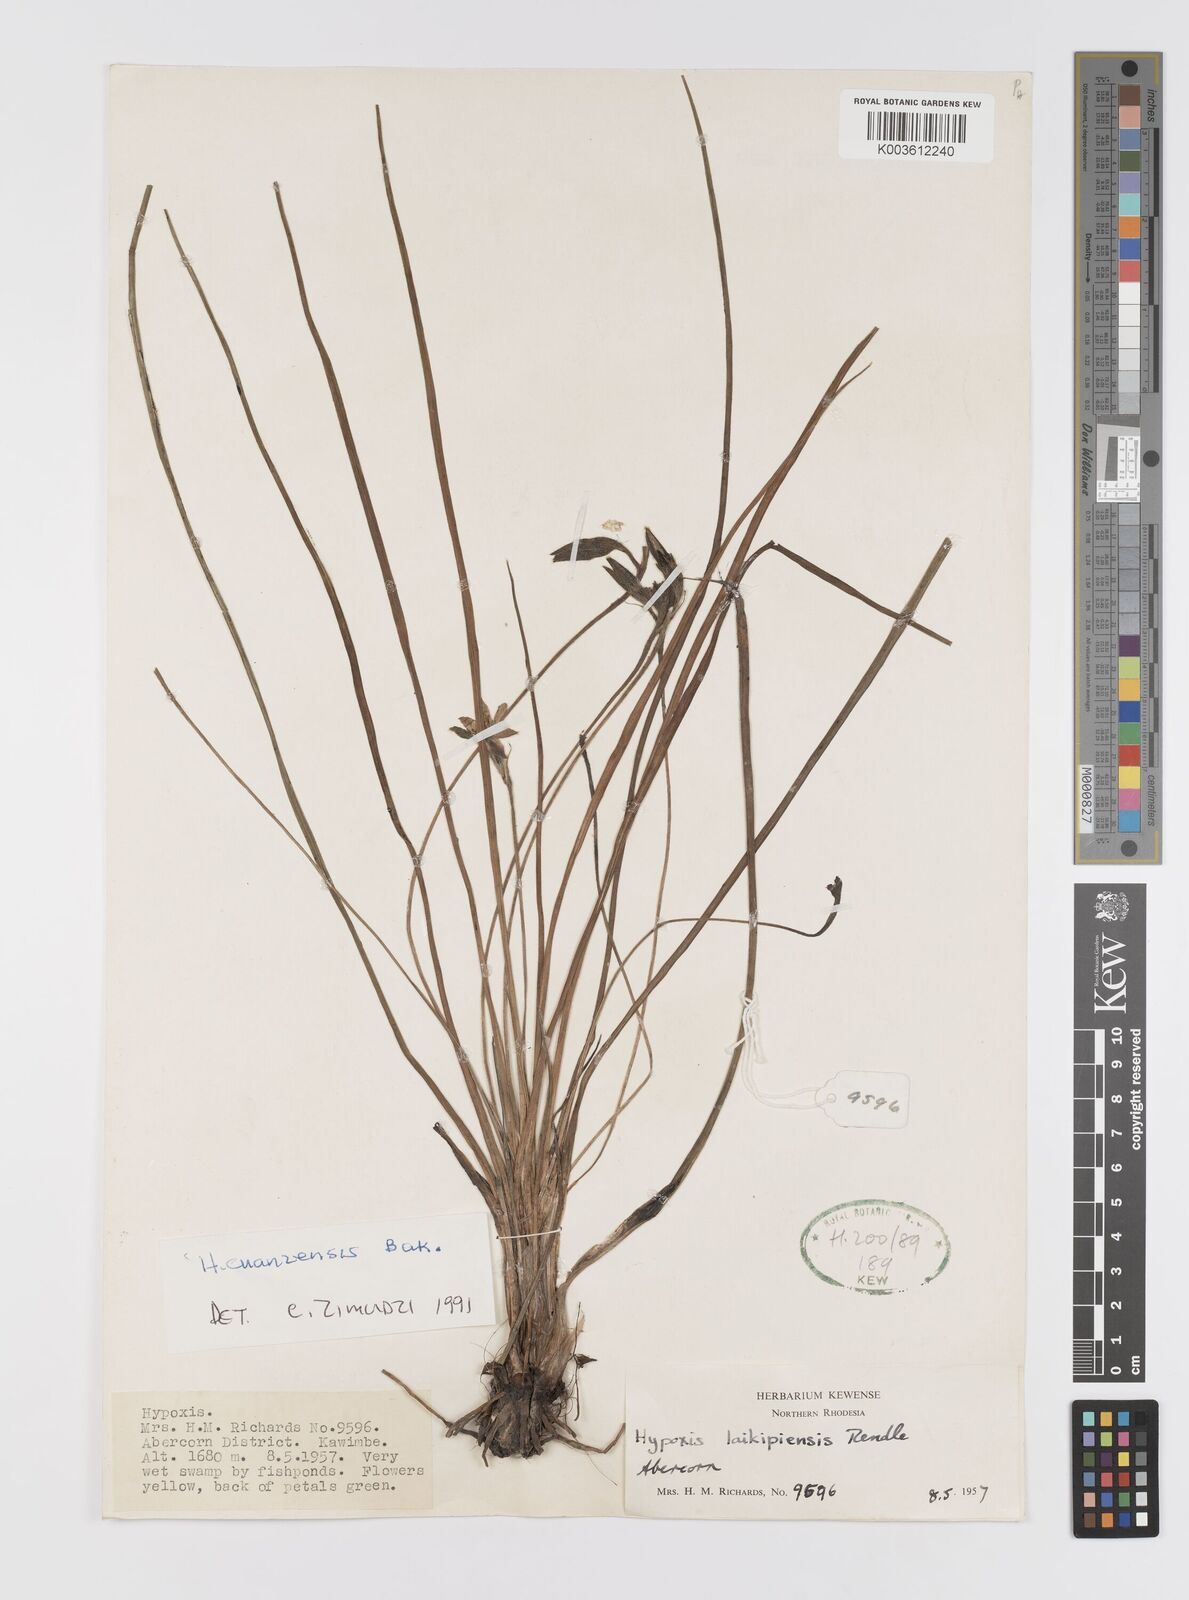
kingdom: Plantae
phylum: Tracheophyta
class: Liliopsida
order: Asparagales
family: Hypoxidaceae
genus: Hypoxis
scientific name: Hypoxis cuanzensis
